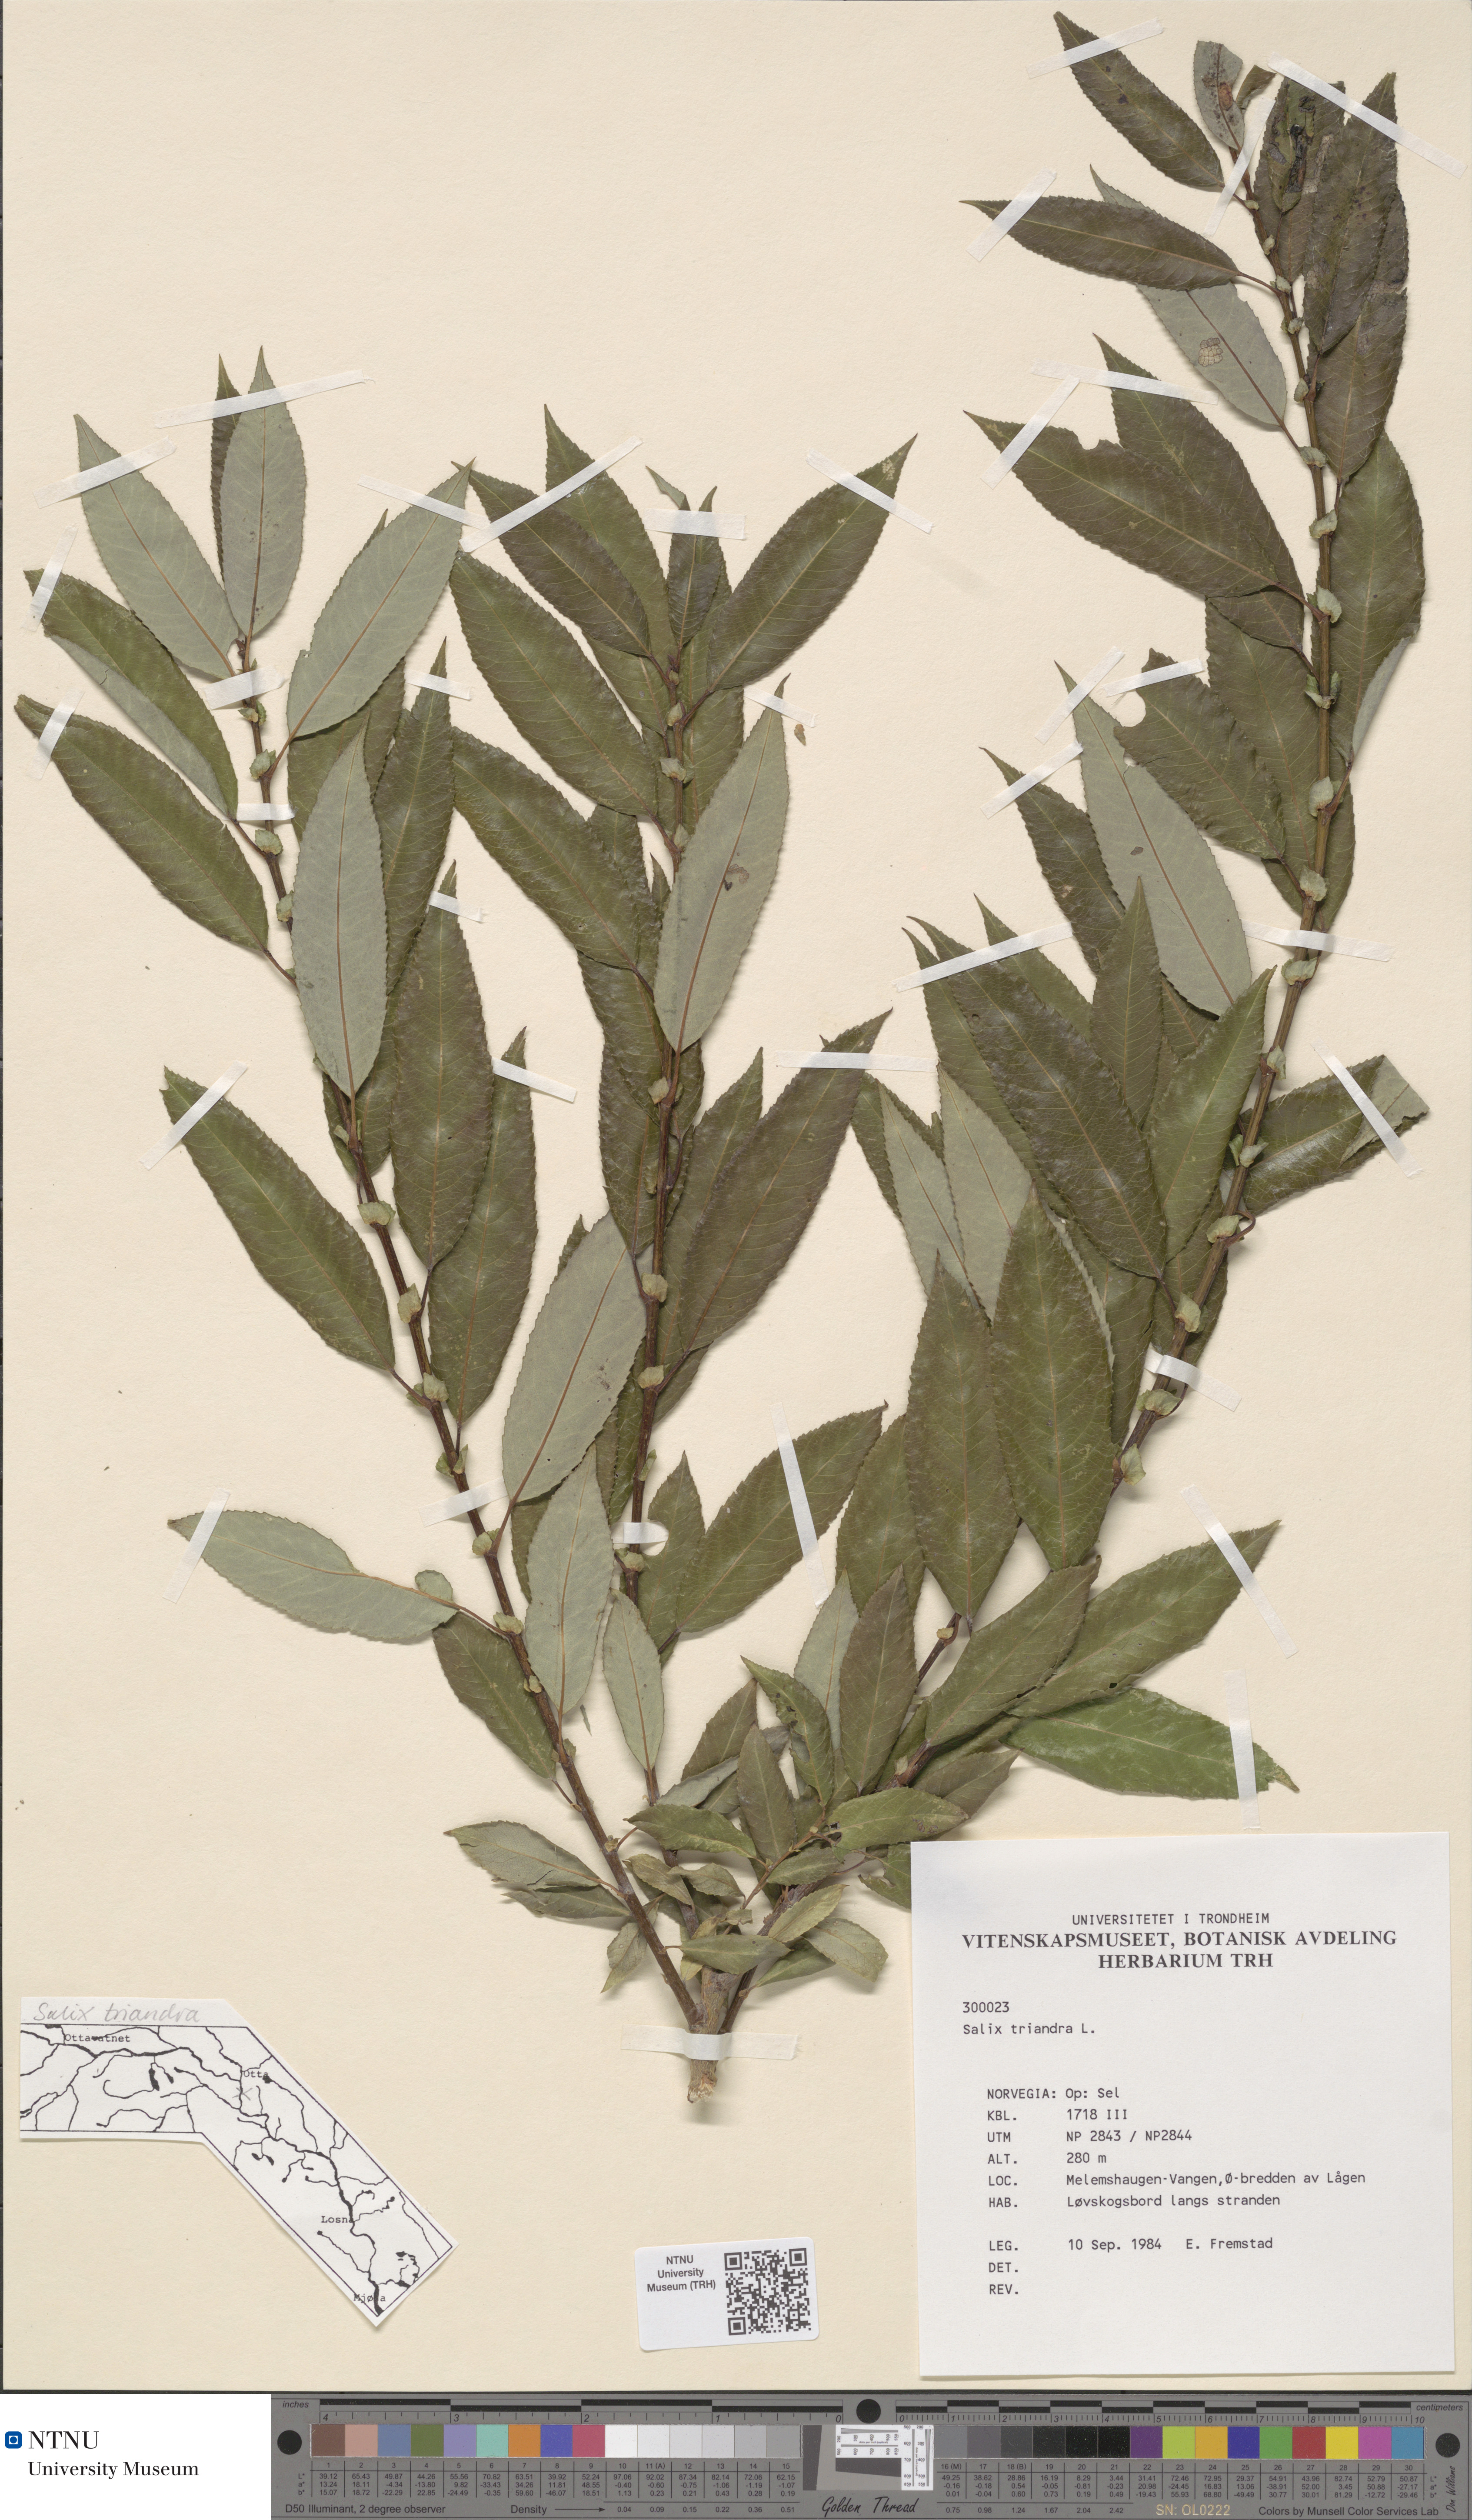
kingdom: Plantae
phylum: Tracheophyta
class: Magnoliopsida
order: Malpighiales
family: Salicaceae
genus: Salix
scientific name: Salix triandra
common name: Almond willow
